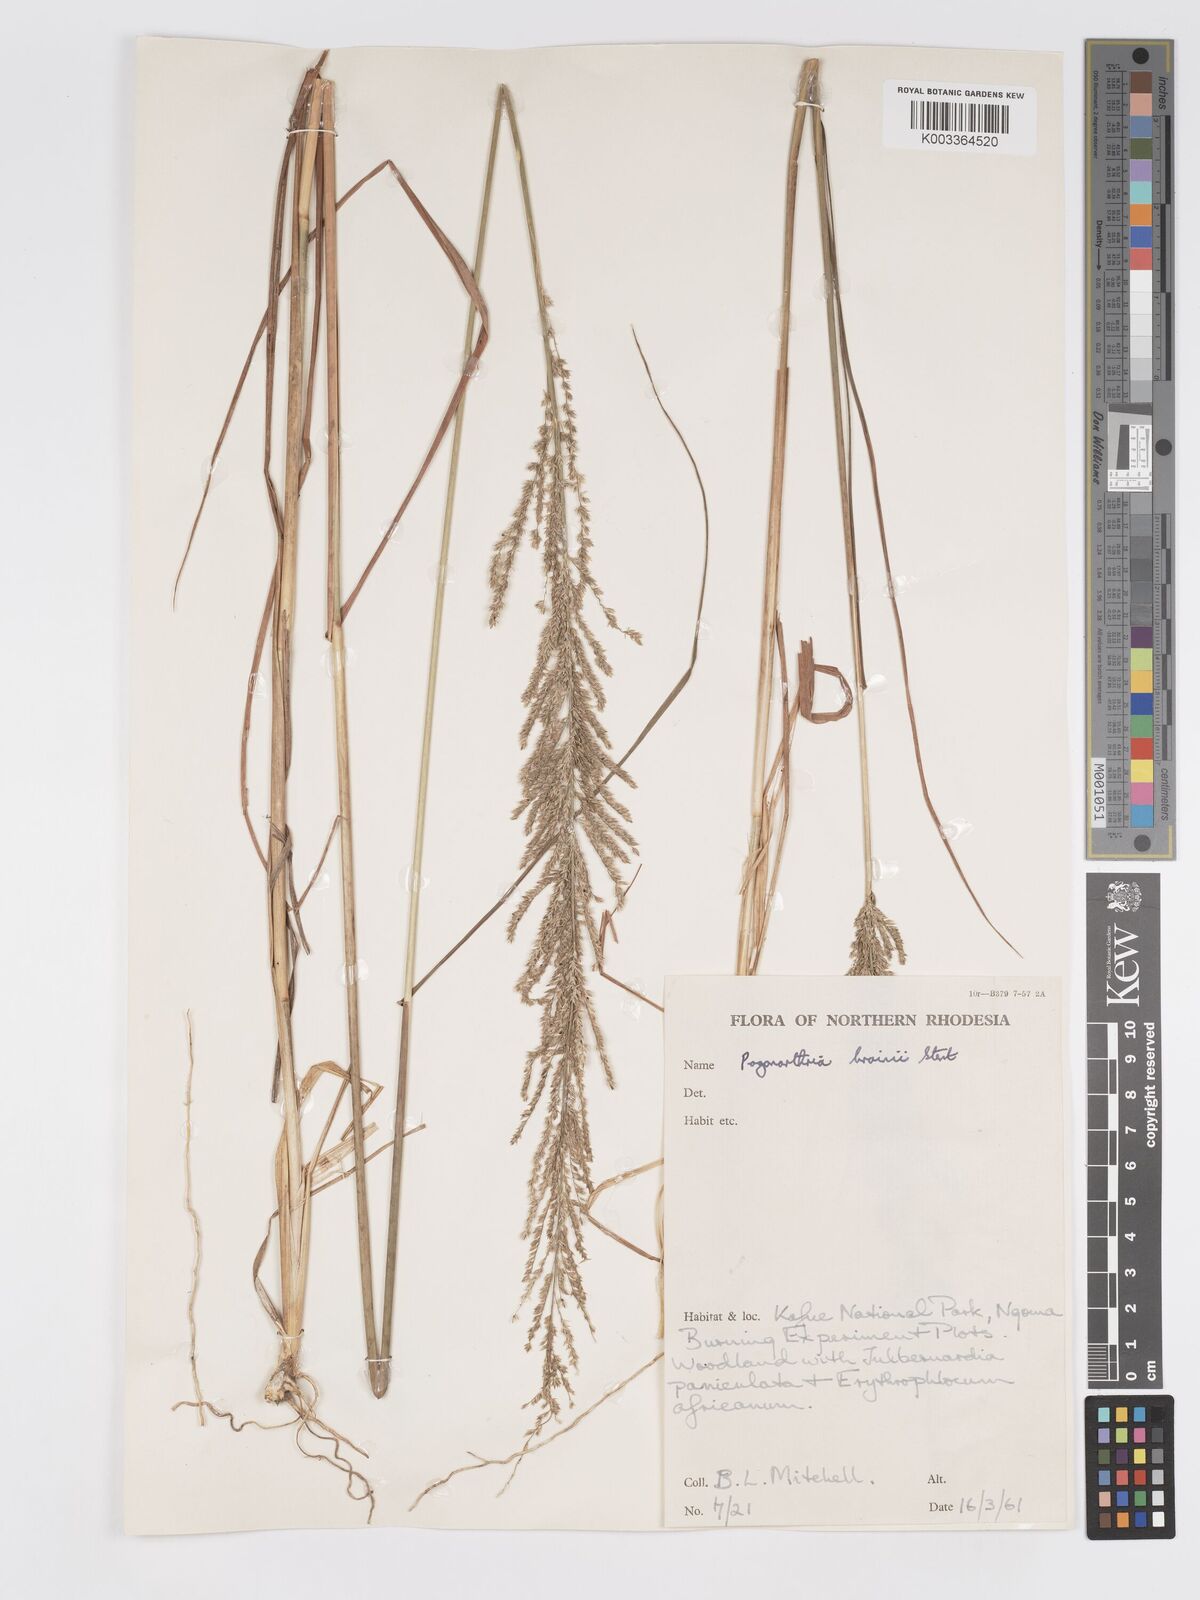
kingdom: Plantae
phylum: Tracheophyta
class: Liliopsida
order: Poales
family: Poaceae
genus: Eragrostis
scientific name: Eragrostis brainii
